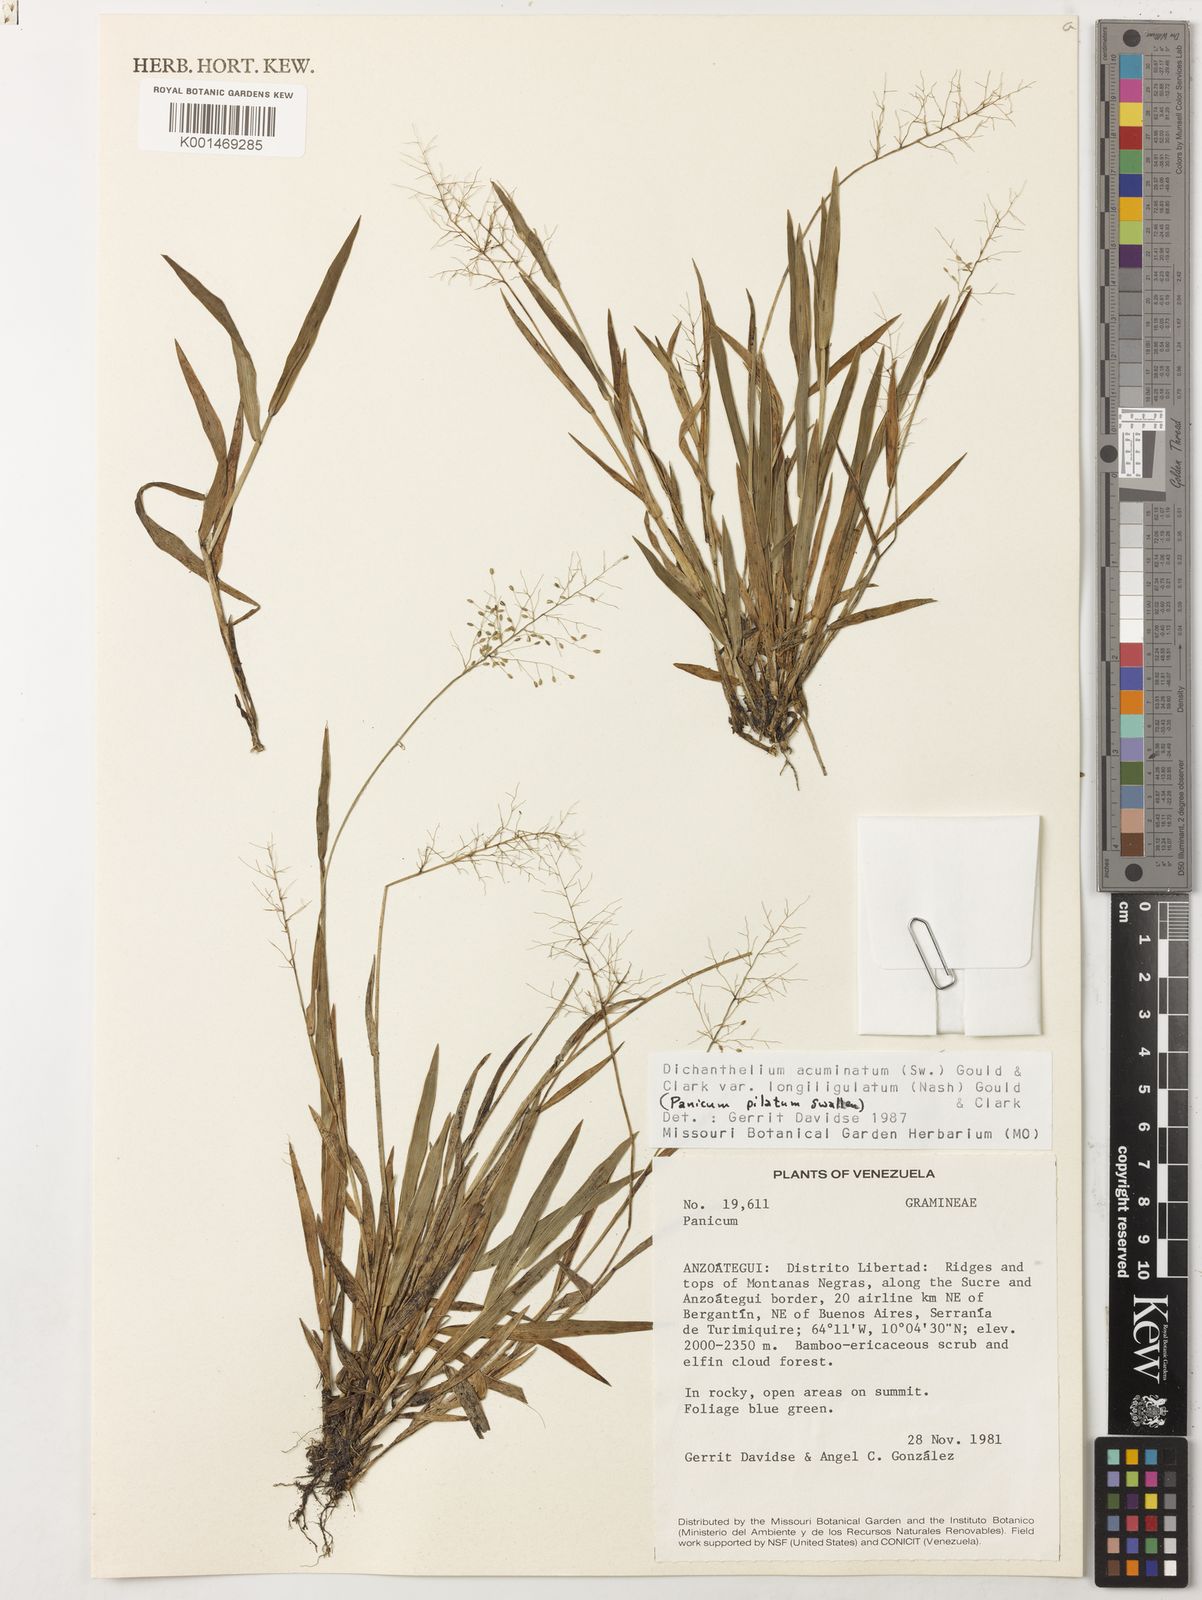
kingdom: Plantae
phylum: Tracheophyta
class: Liliopsida
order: Poales
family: Poaceae
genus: Dichanthelium
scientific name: Dichanthelium longiligulatum
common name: Long-ligule panicgrass
